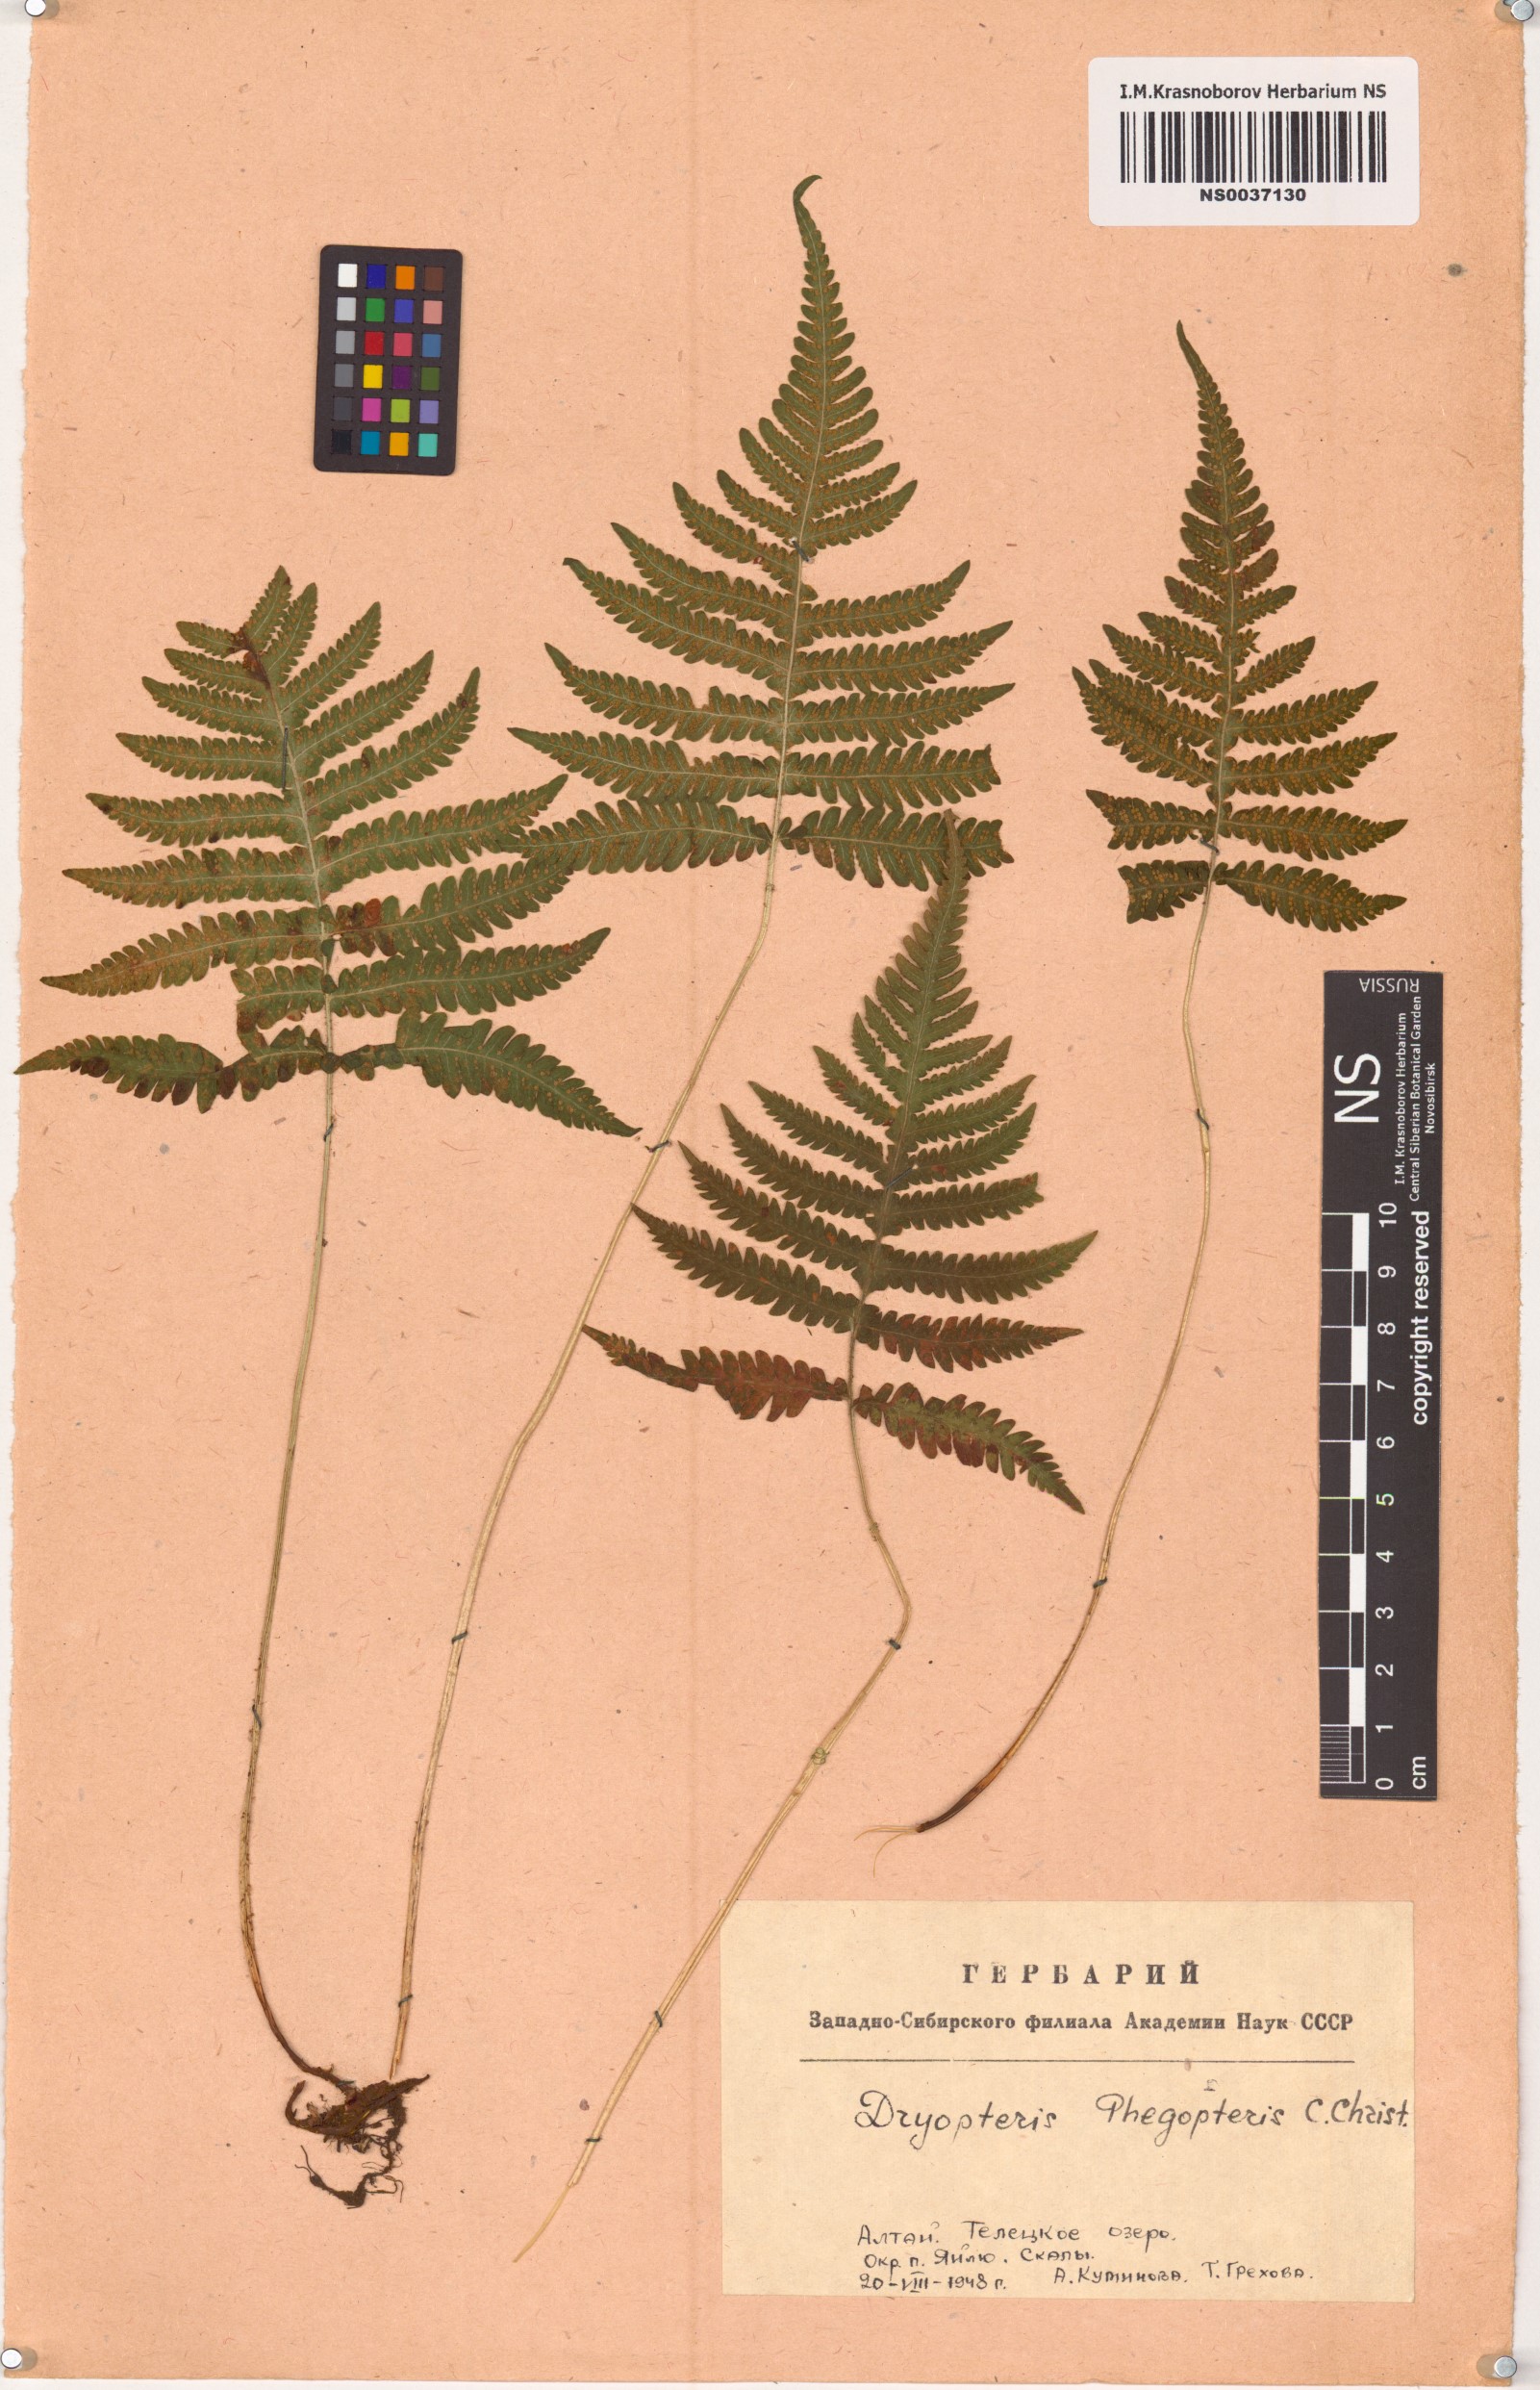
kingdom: Plantae
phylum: Tracheophyta
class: Polypodiopsida
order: Polypodiales
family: Thelypteridaceae
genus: Phegopteris
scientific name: Phegopteris connectilis
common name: Beech fern
